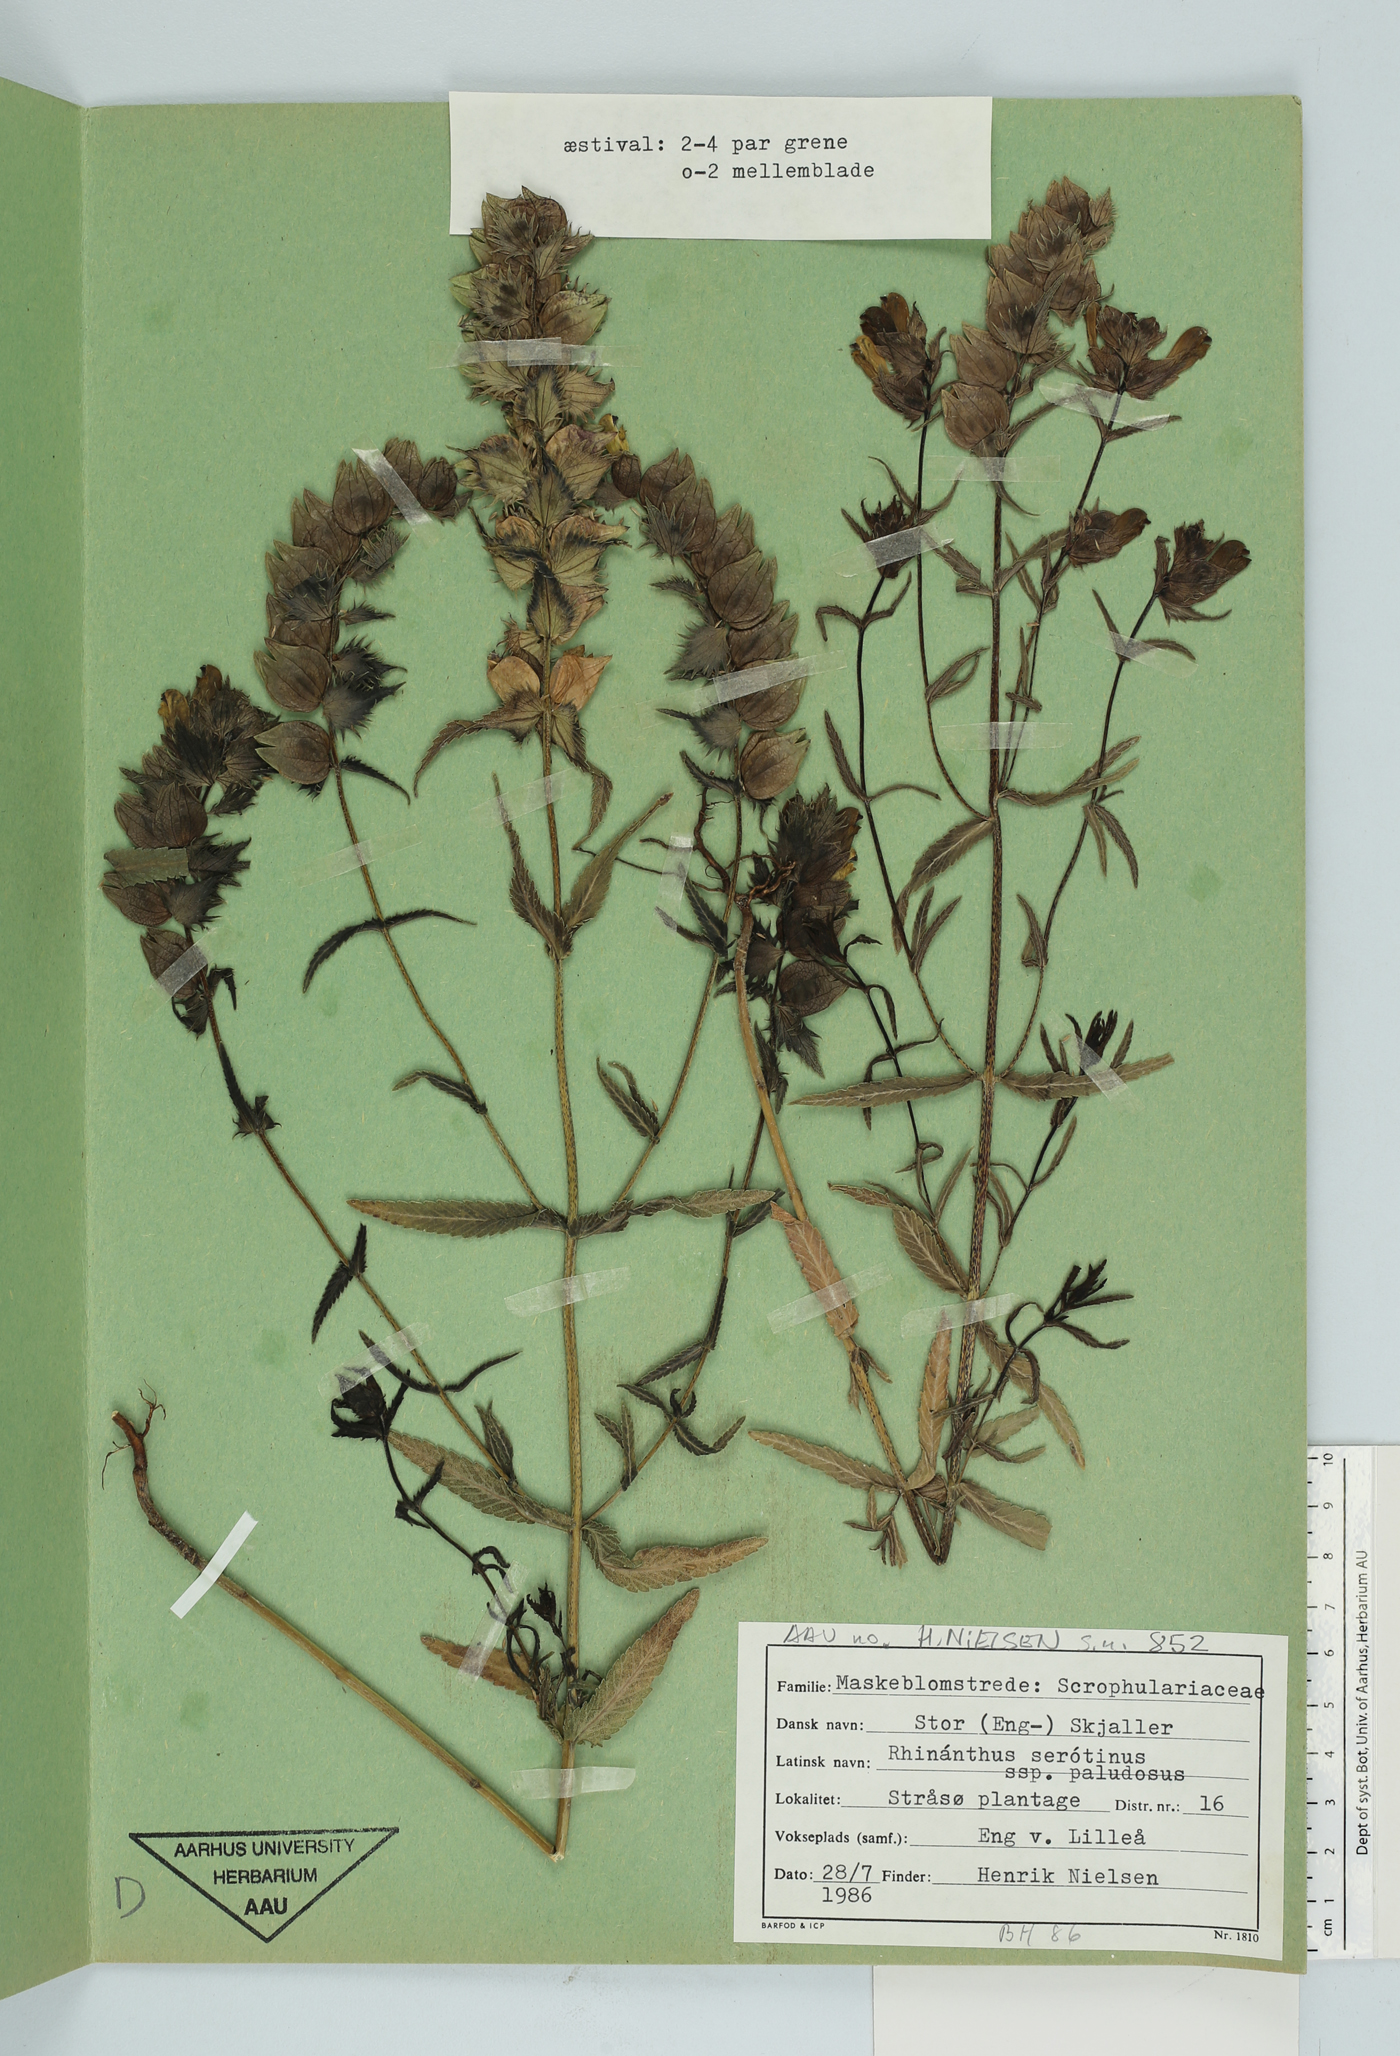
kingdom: Plantae
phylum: Tracheophyta
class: Magnoliopsida
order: Lamiales
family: Orobanchaceae
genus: Rhinanthus
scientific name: Rhinanthus serotinus
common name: Late-flowering yellow rattle
